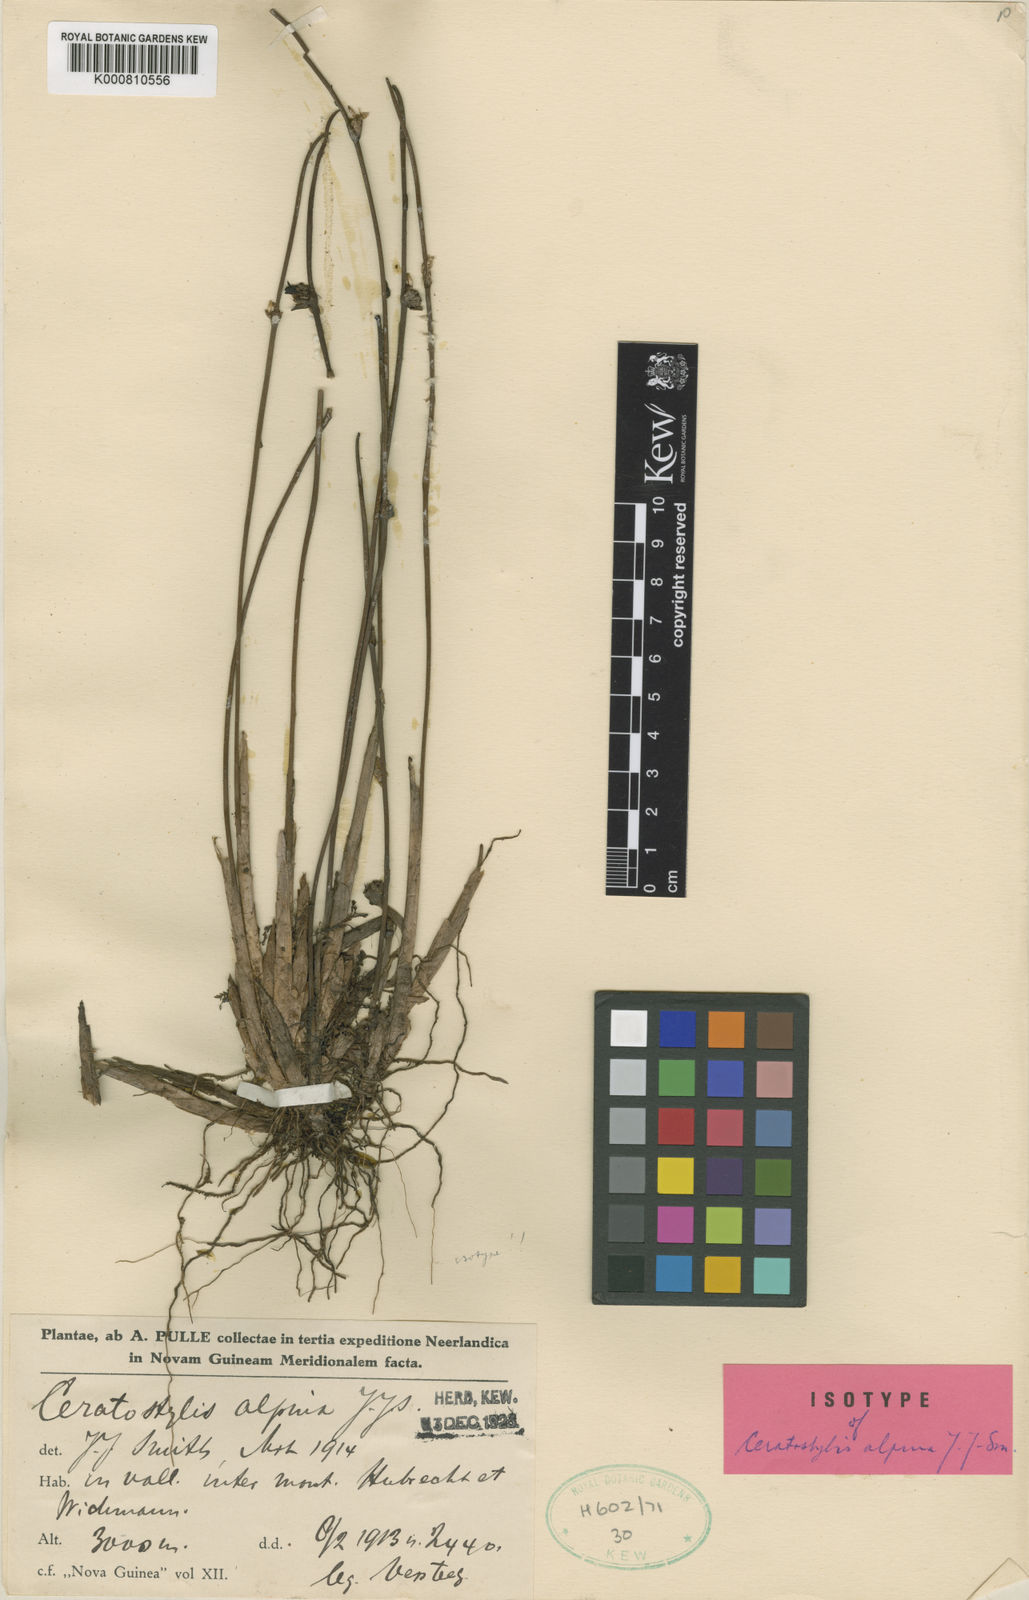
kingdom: Plantae
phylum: Tracheophyta
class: Liliopsida
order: Asparagales
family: Orchidaceae
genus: Ceratostylis
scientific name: Ceratostylis alpina
